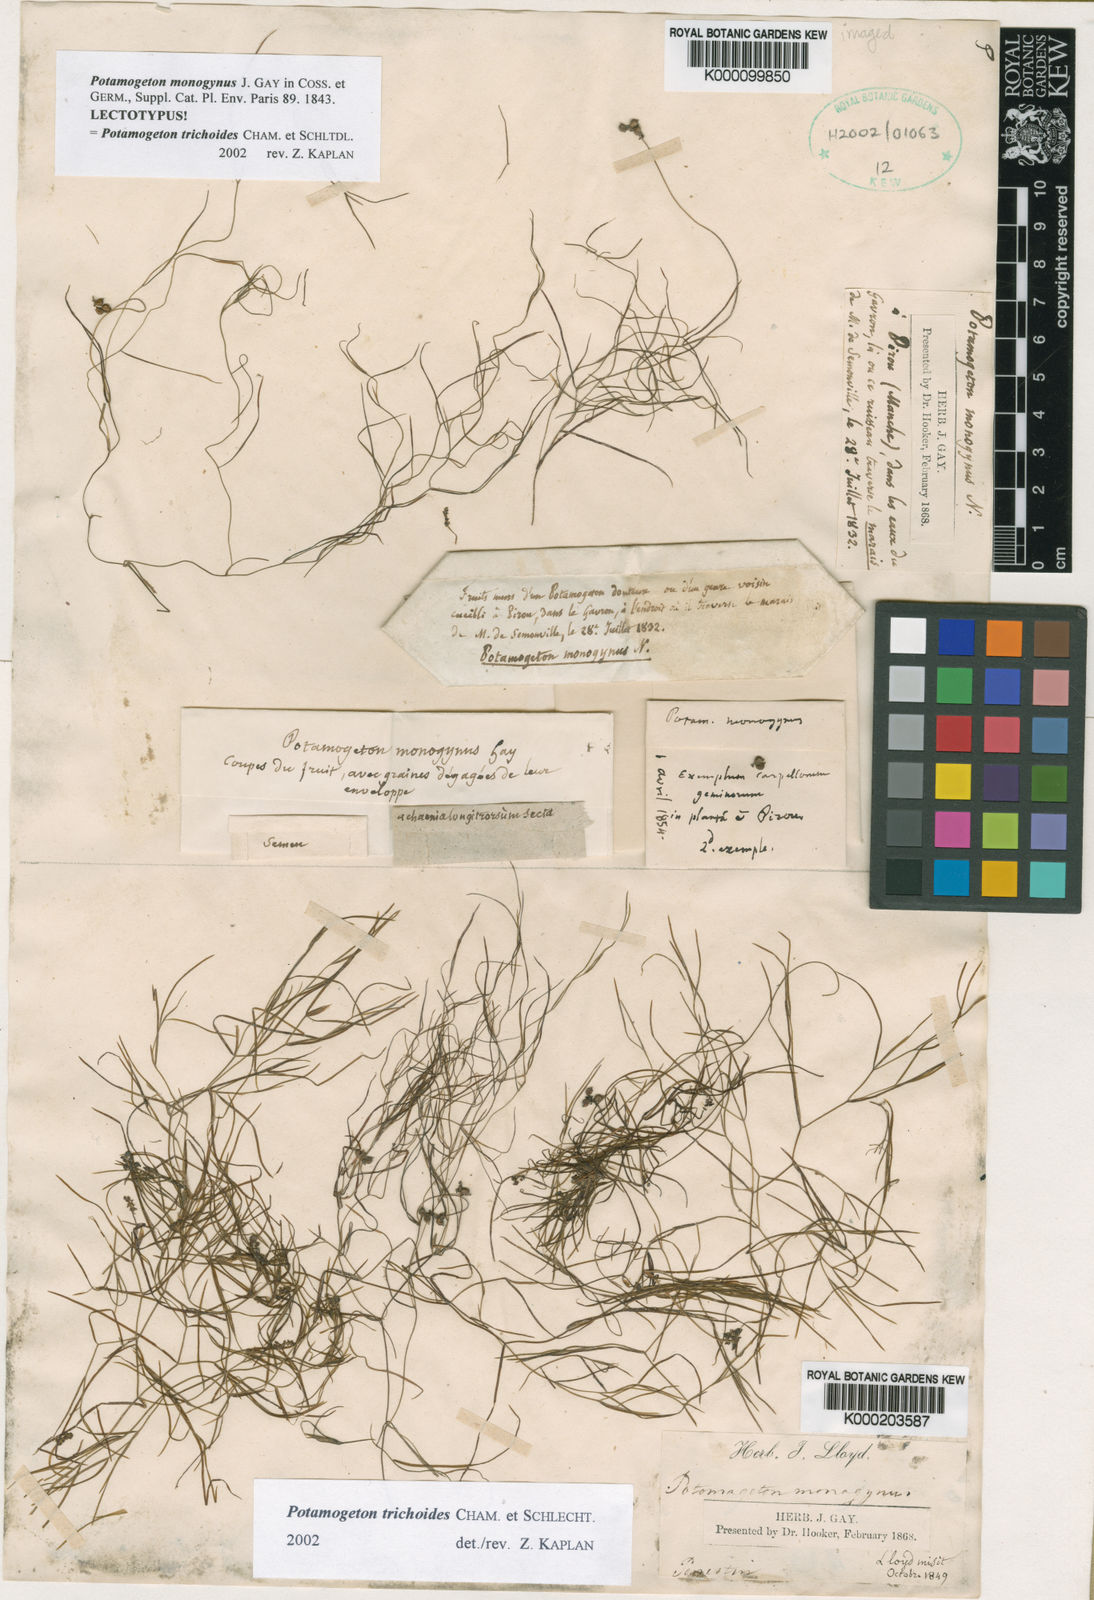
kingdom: Plantae
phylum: Tracheophyta
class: Liliopsida
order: Alismatales
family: Potamogetonaceae
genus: Potamogeton
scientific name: Potamogeton trichoides
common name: Hairlike pondweed
